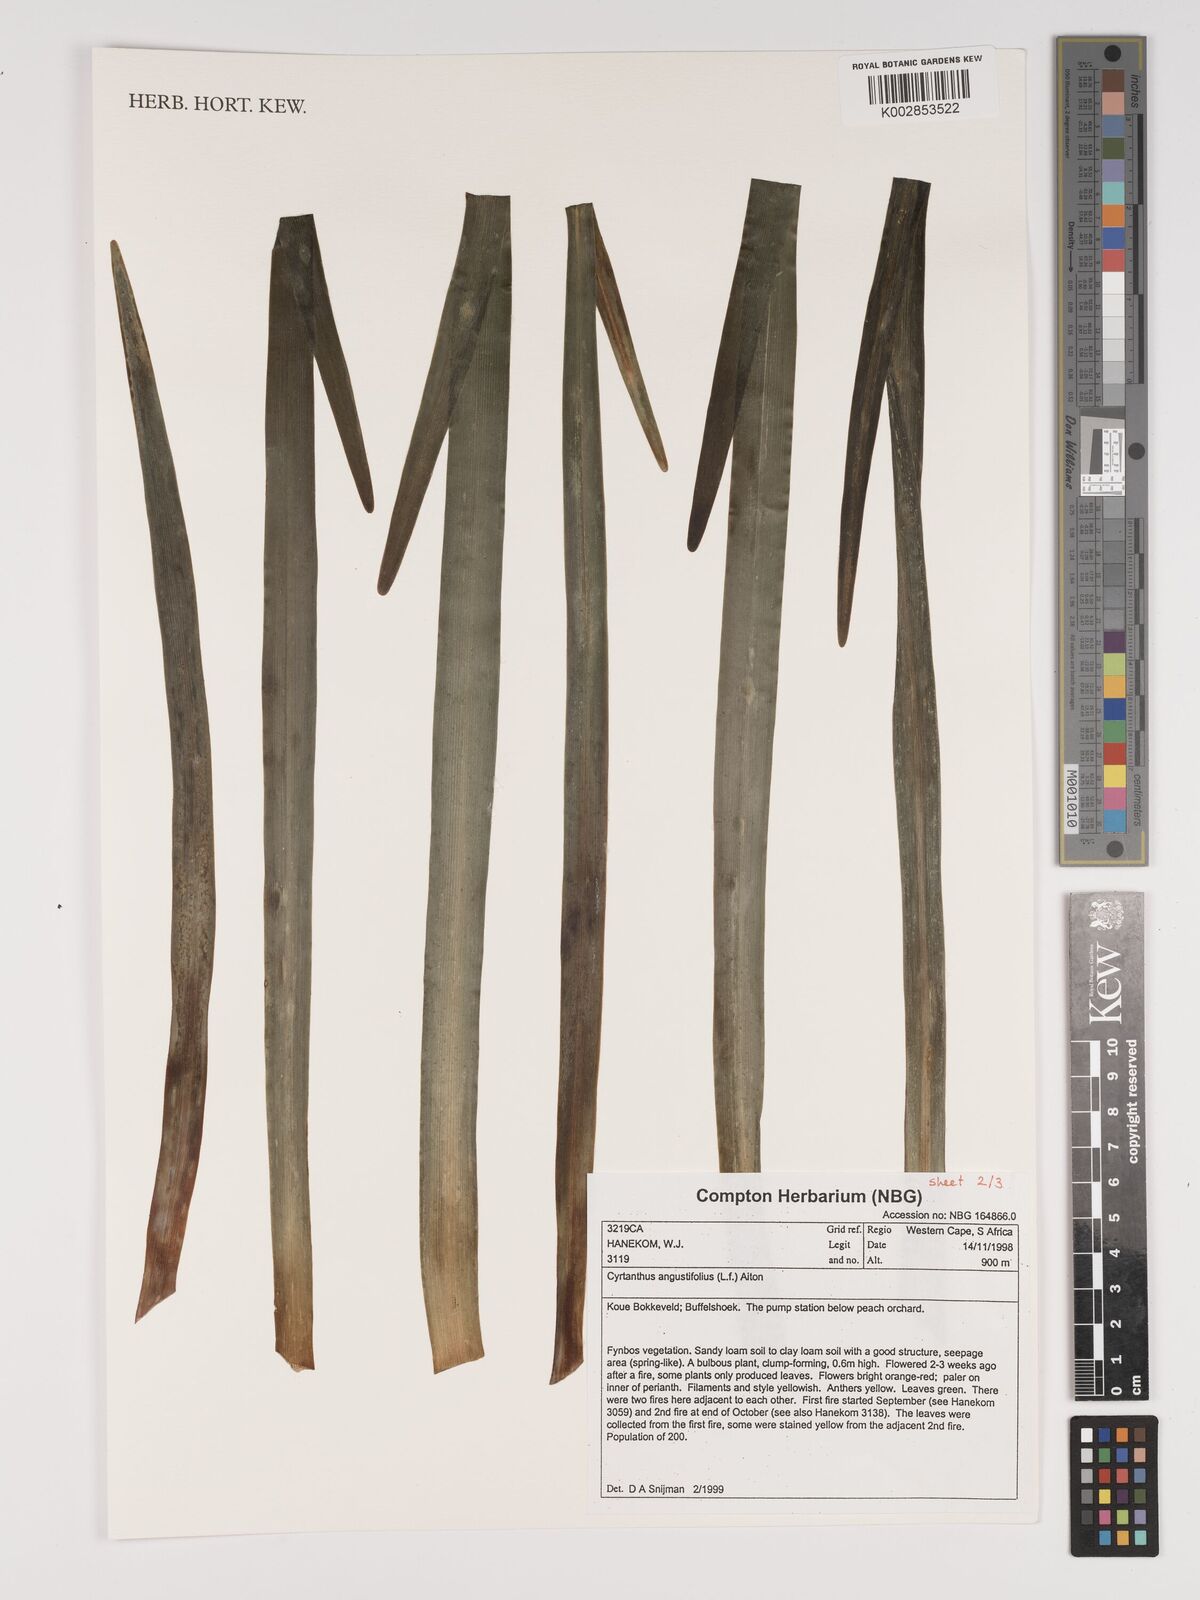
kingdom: Plantae
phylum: Tracheophyta
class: Liliopsida
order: Asparagales
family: Amaryllidaceae
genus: Cyrtanthus
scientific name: Cyrtanthus angustifolius
